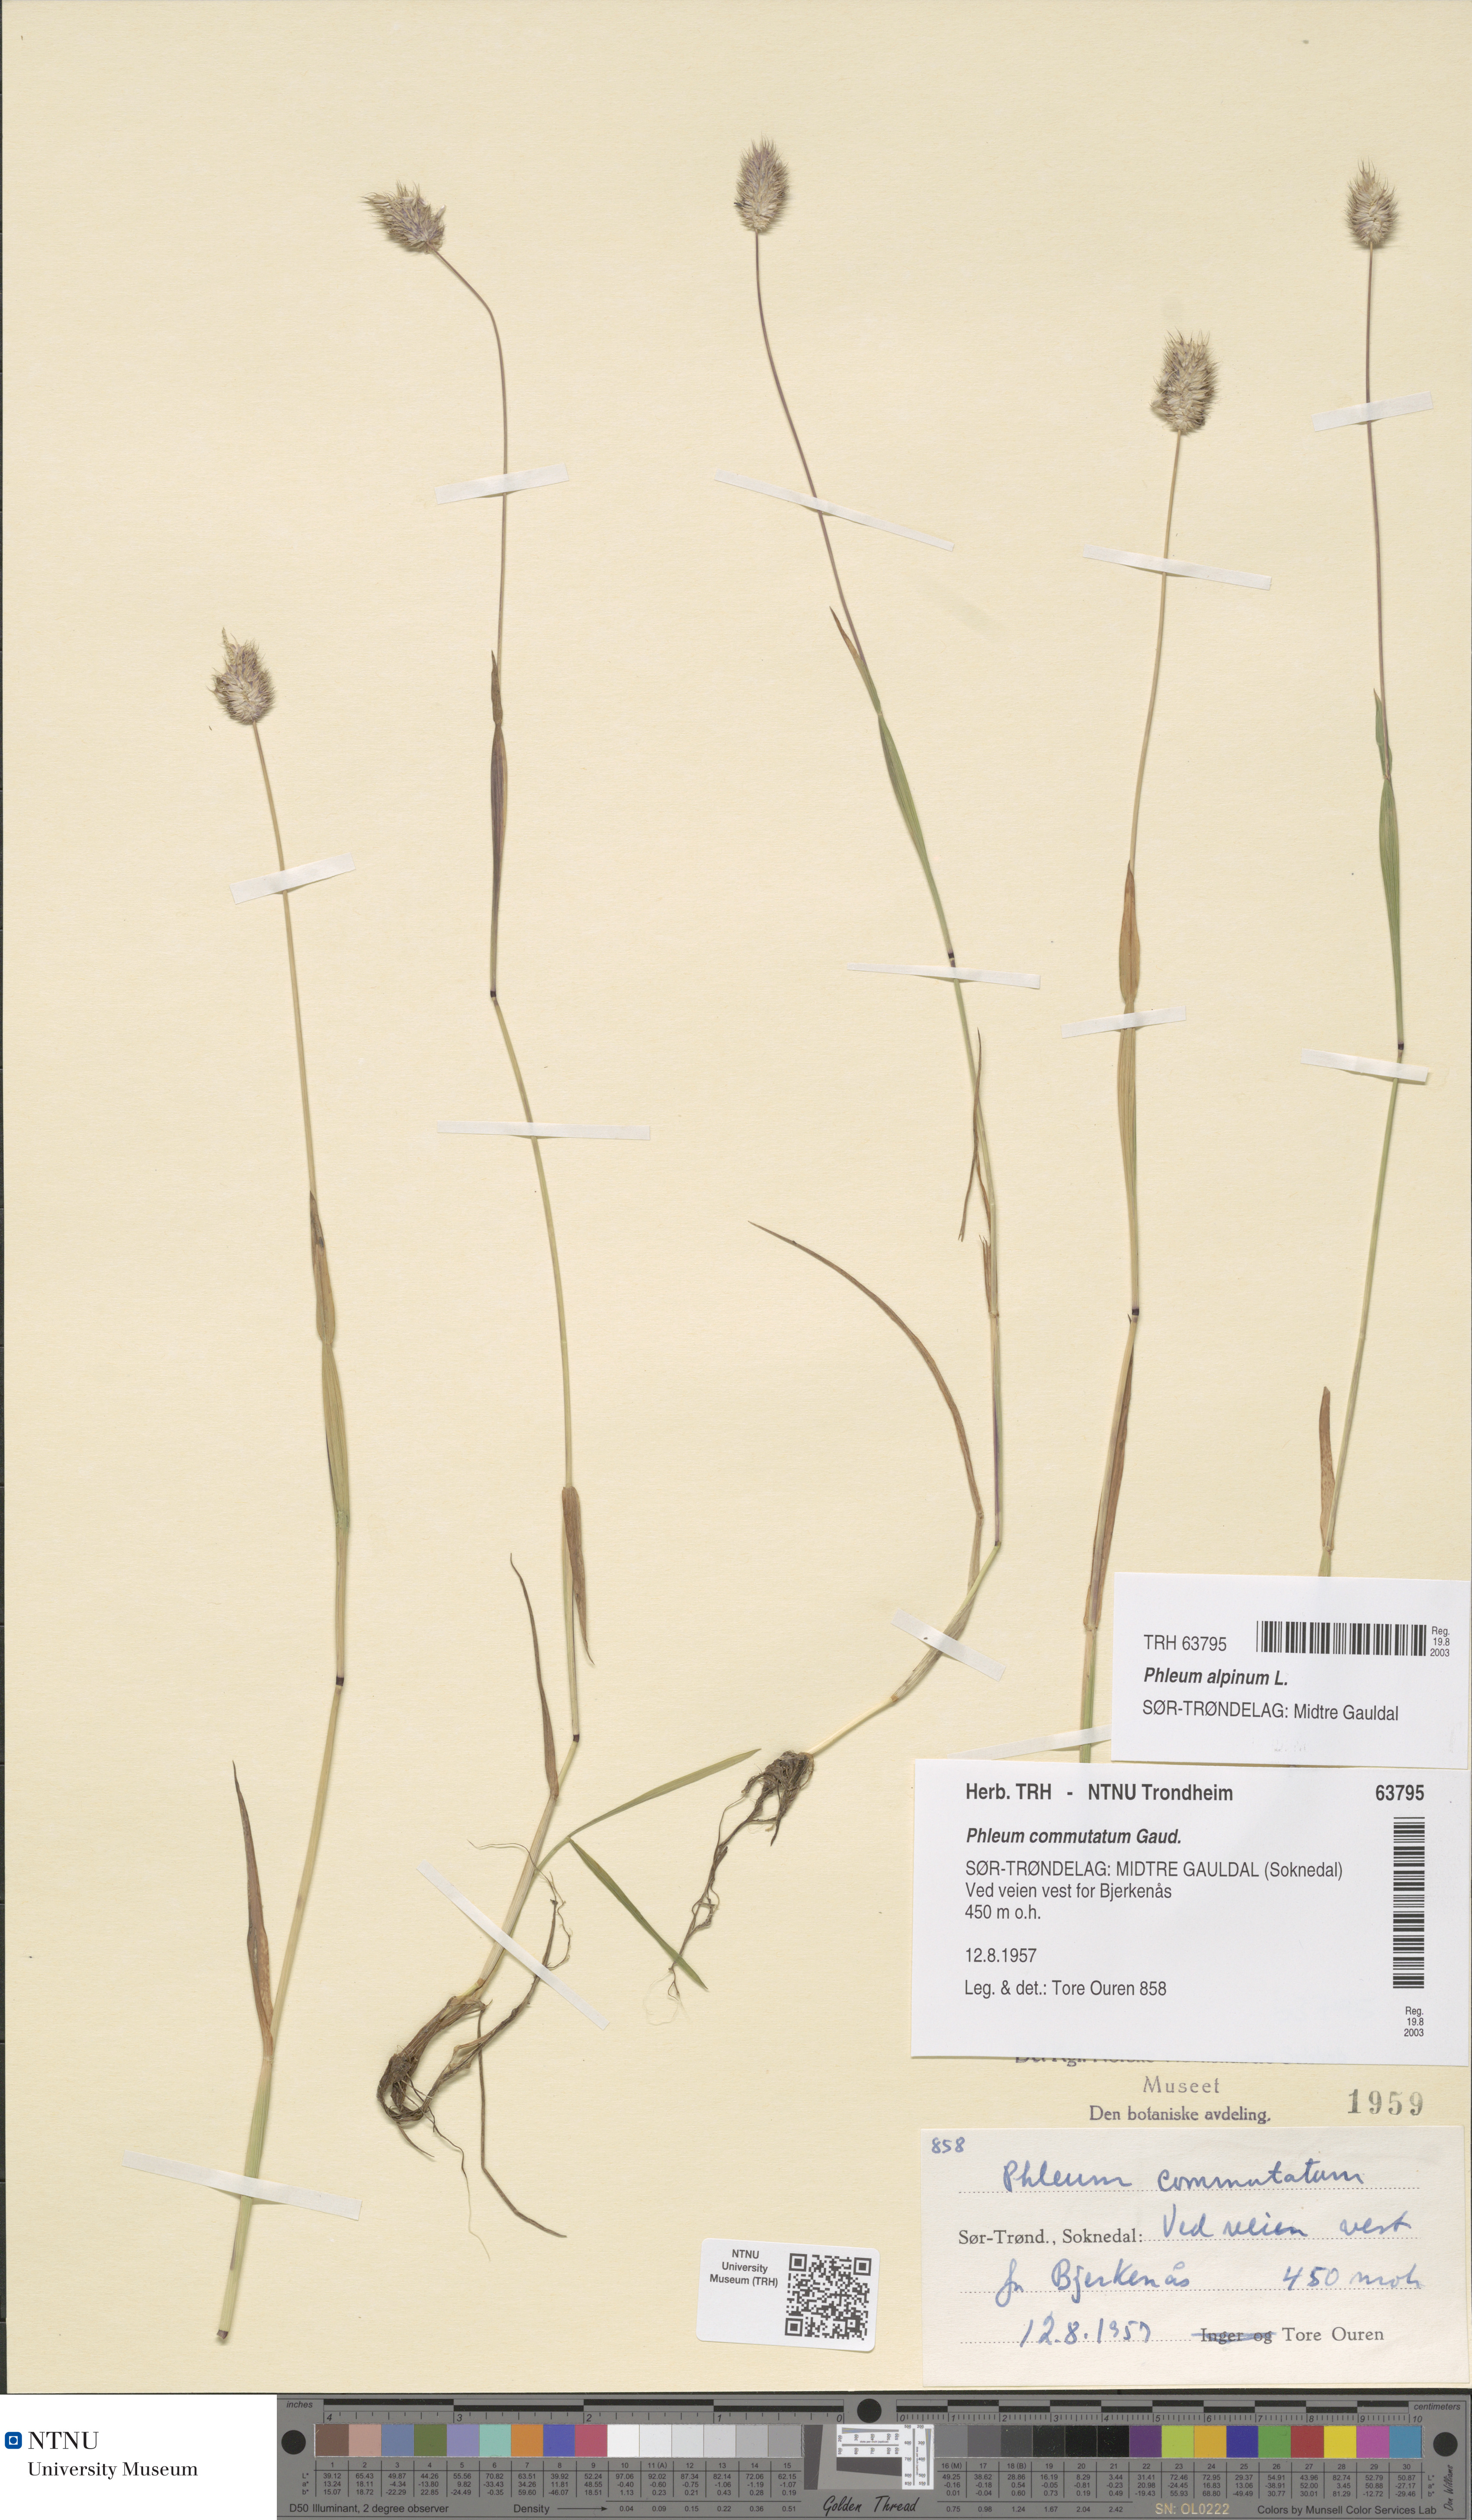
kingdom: Plantae
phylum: Tracheophyta
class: Liliopsida
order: Poales
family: Poaceae
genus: Phleum
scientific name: Phleum alpinum
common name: Alpine cat's-tail
